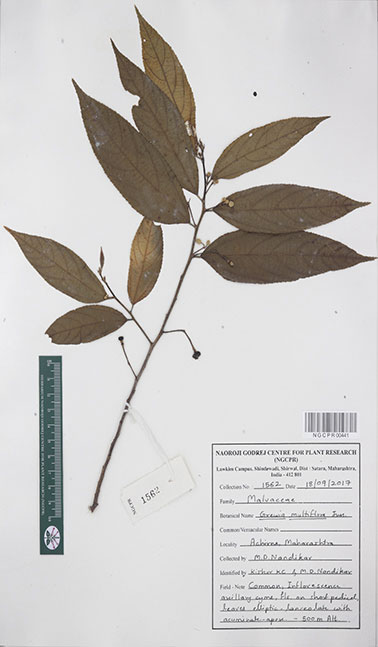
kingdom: Plantae
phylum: Tracheophyta
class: Magnoliopsida
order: Malvales
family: Malvaceae
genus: Grewia
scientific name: Grewia multiflora
